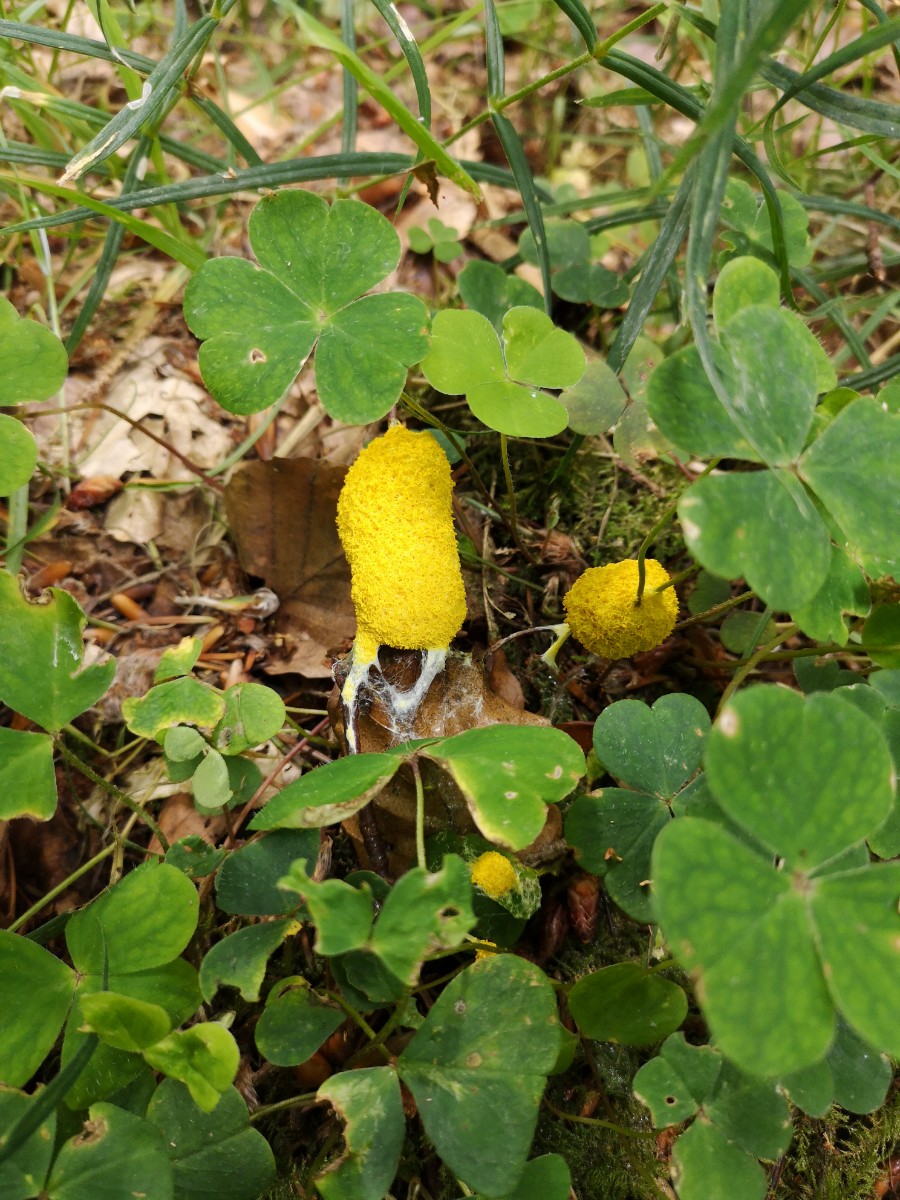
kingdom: Protozoa
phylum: Mycetozoa
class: Myxomycetes
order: Physarales
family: Physaraceae
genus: Fuligo
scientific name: Fuligo septica
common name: gul troldsmør
